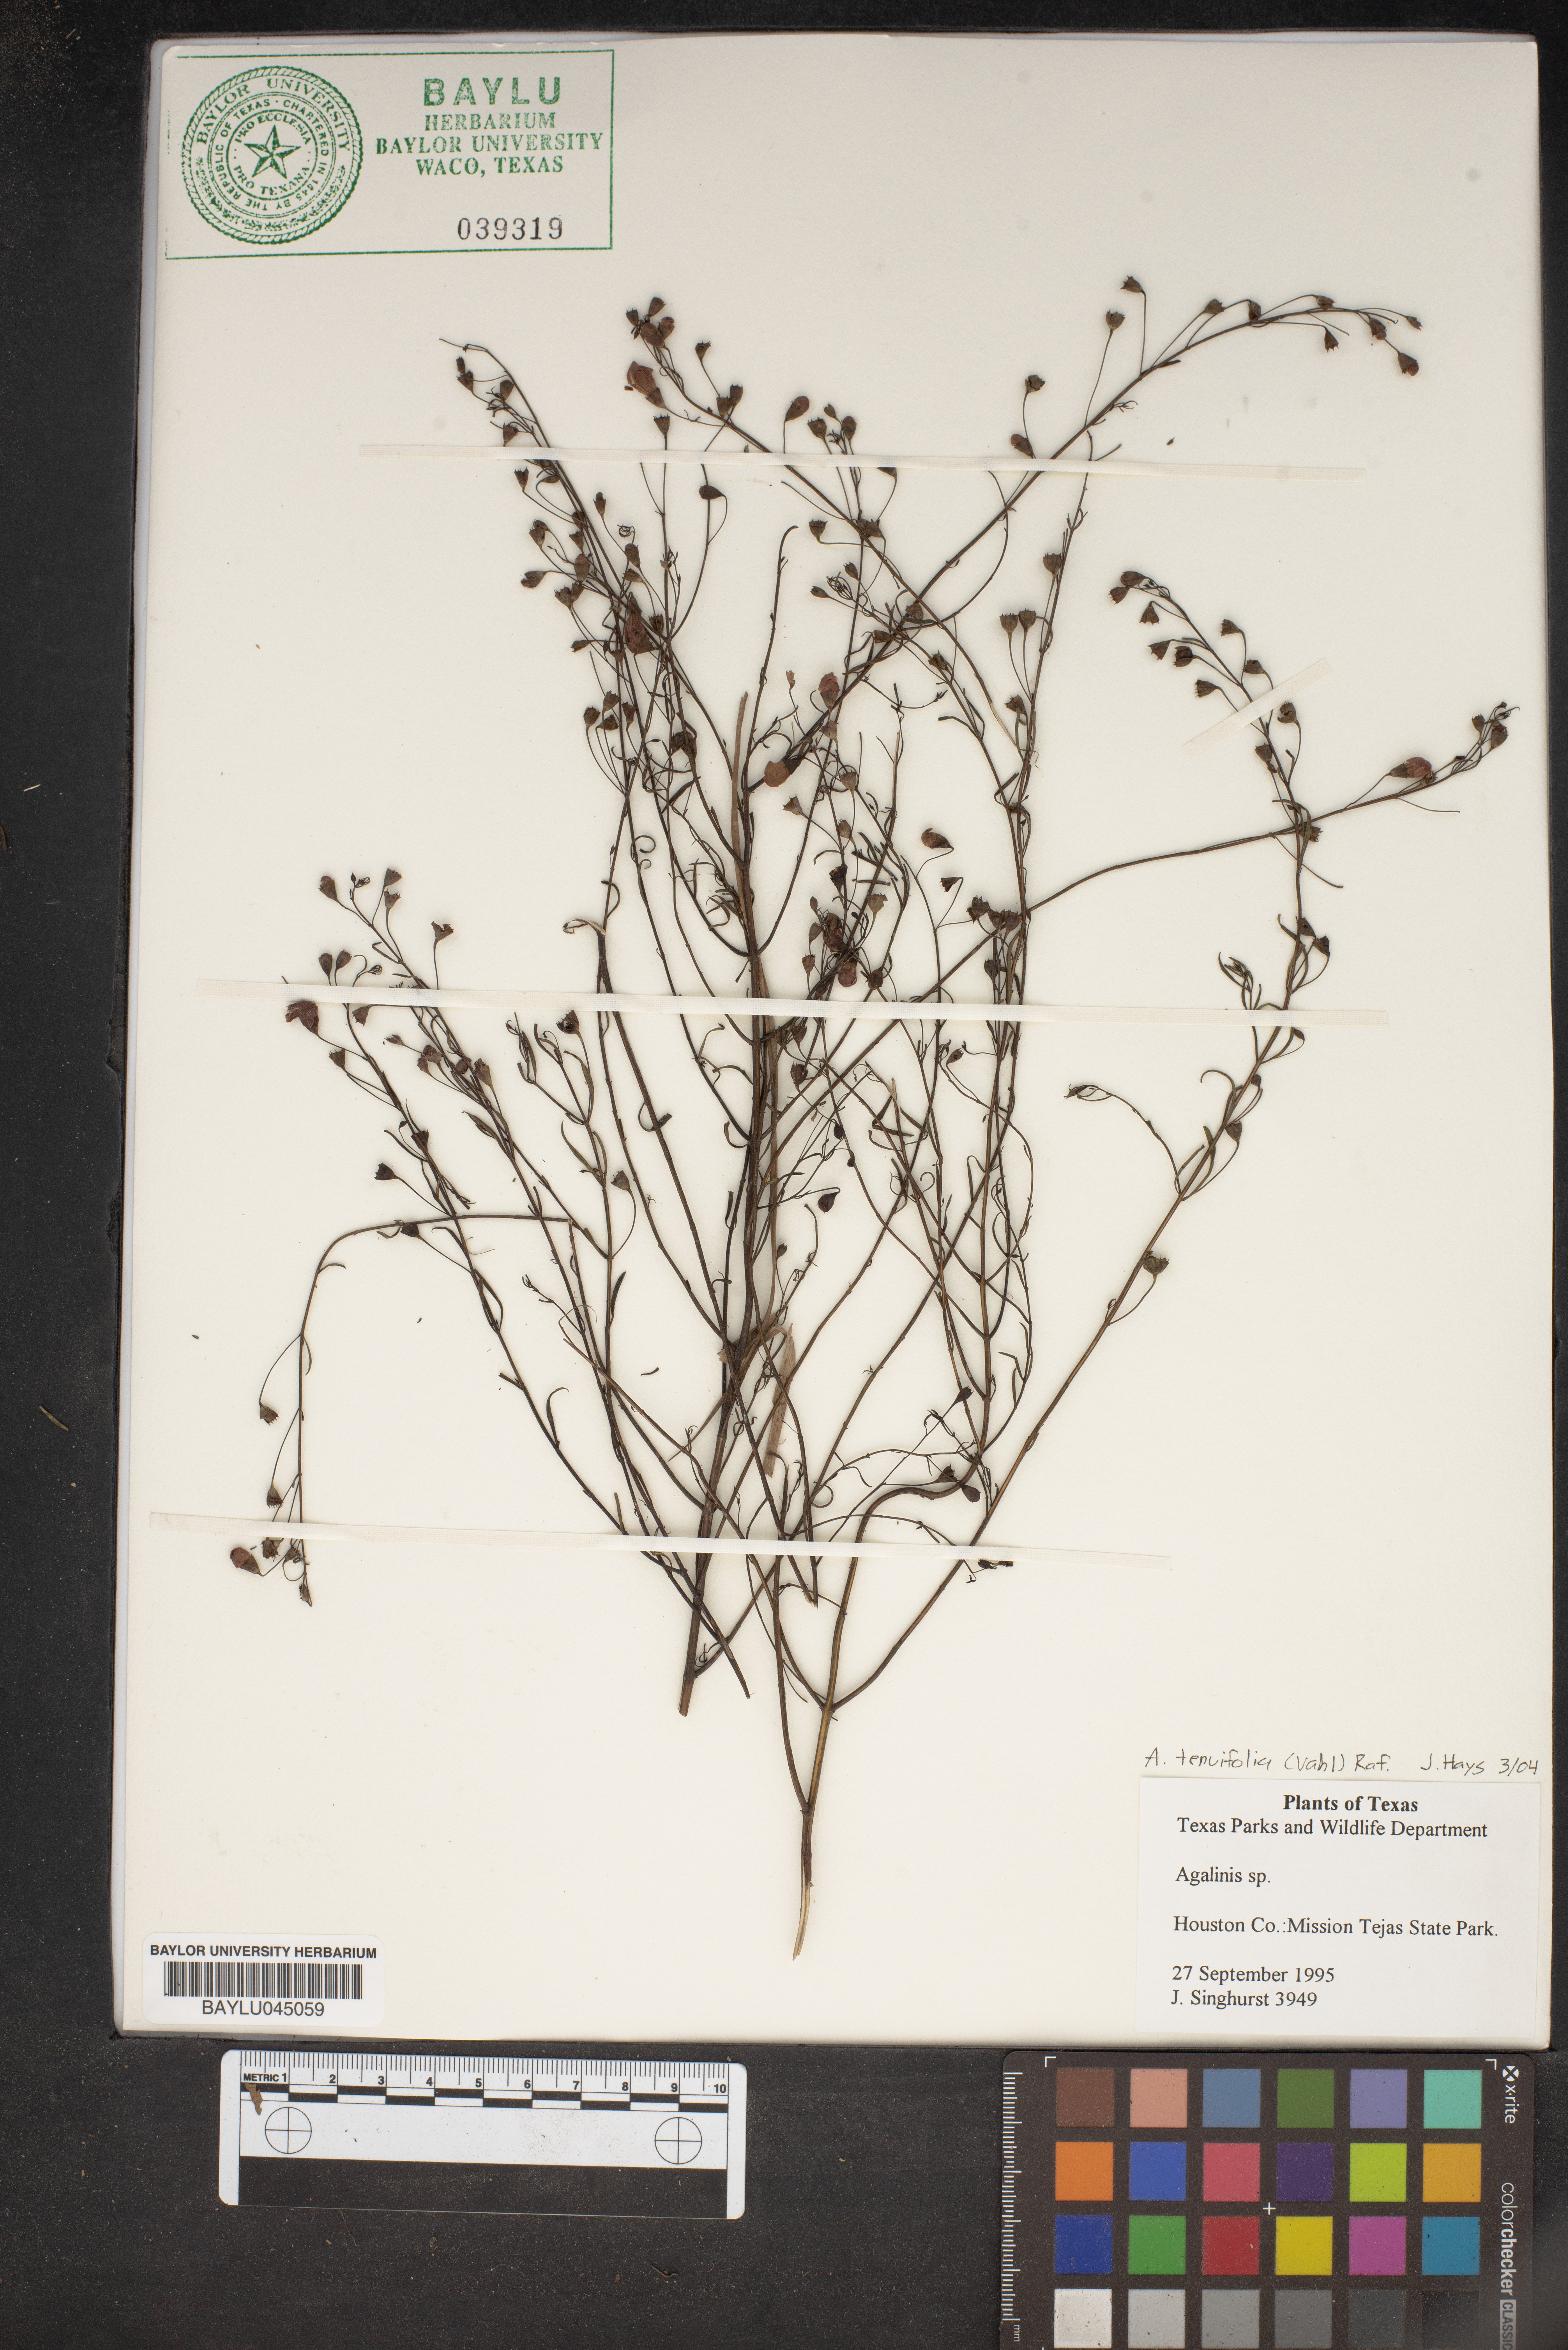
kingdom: Plantae
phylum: Tracheophyta
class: Magnoliopsida
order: Lamiales
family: Orobanchaceae
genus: Agalinis
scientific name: Agalinis tenuifolia
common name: Slender agalinis
